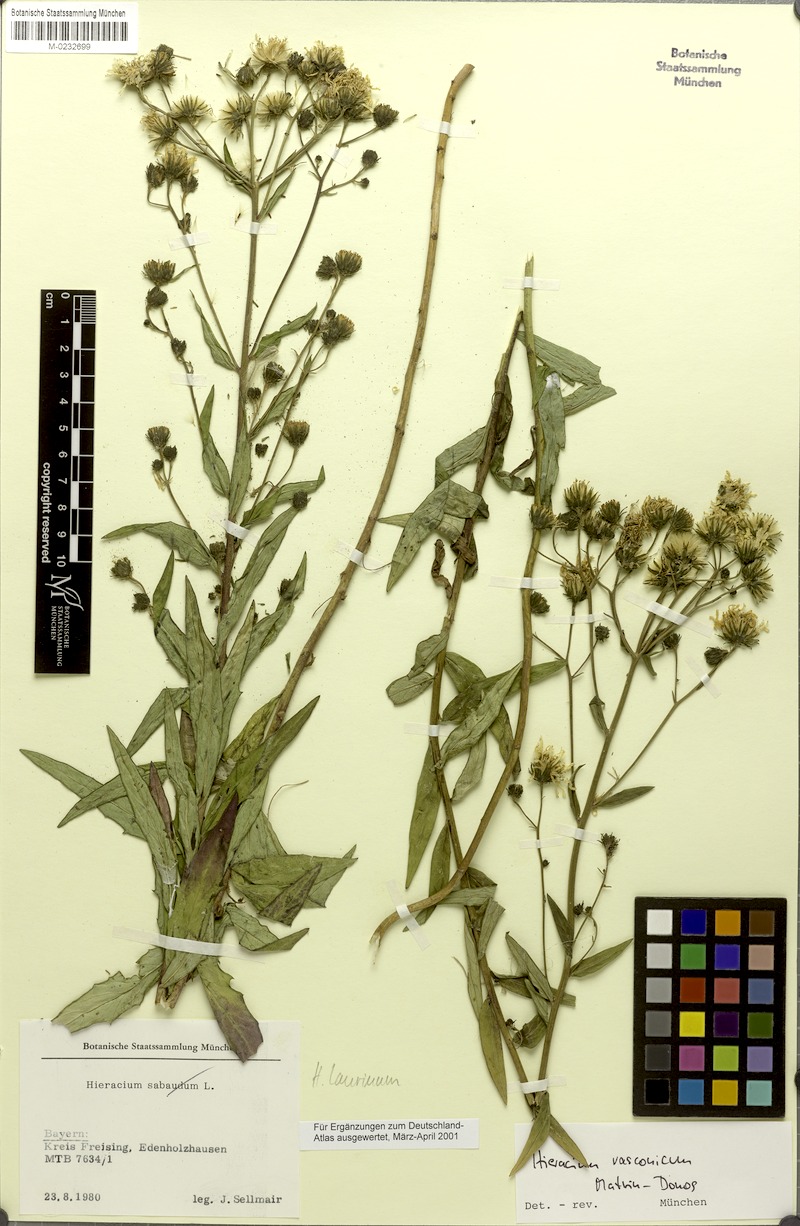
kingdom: Plantae
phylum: Tracheophyta
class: Magnoliopsida
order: Asterales
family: Asteraceae
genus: Hieracium
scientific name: Hieracium vasconicum
